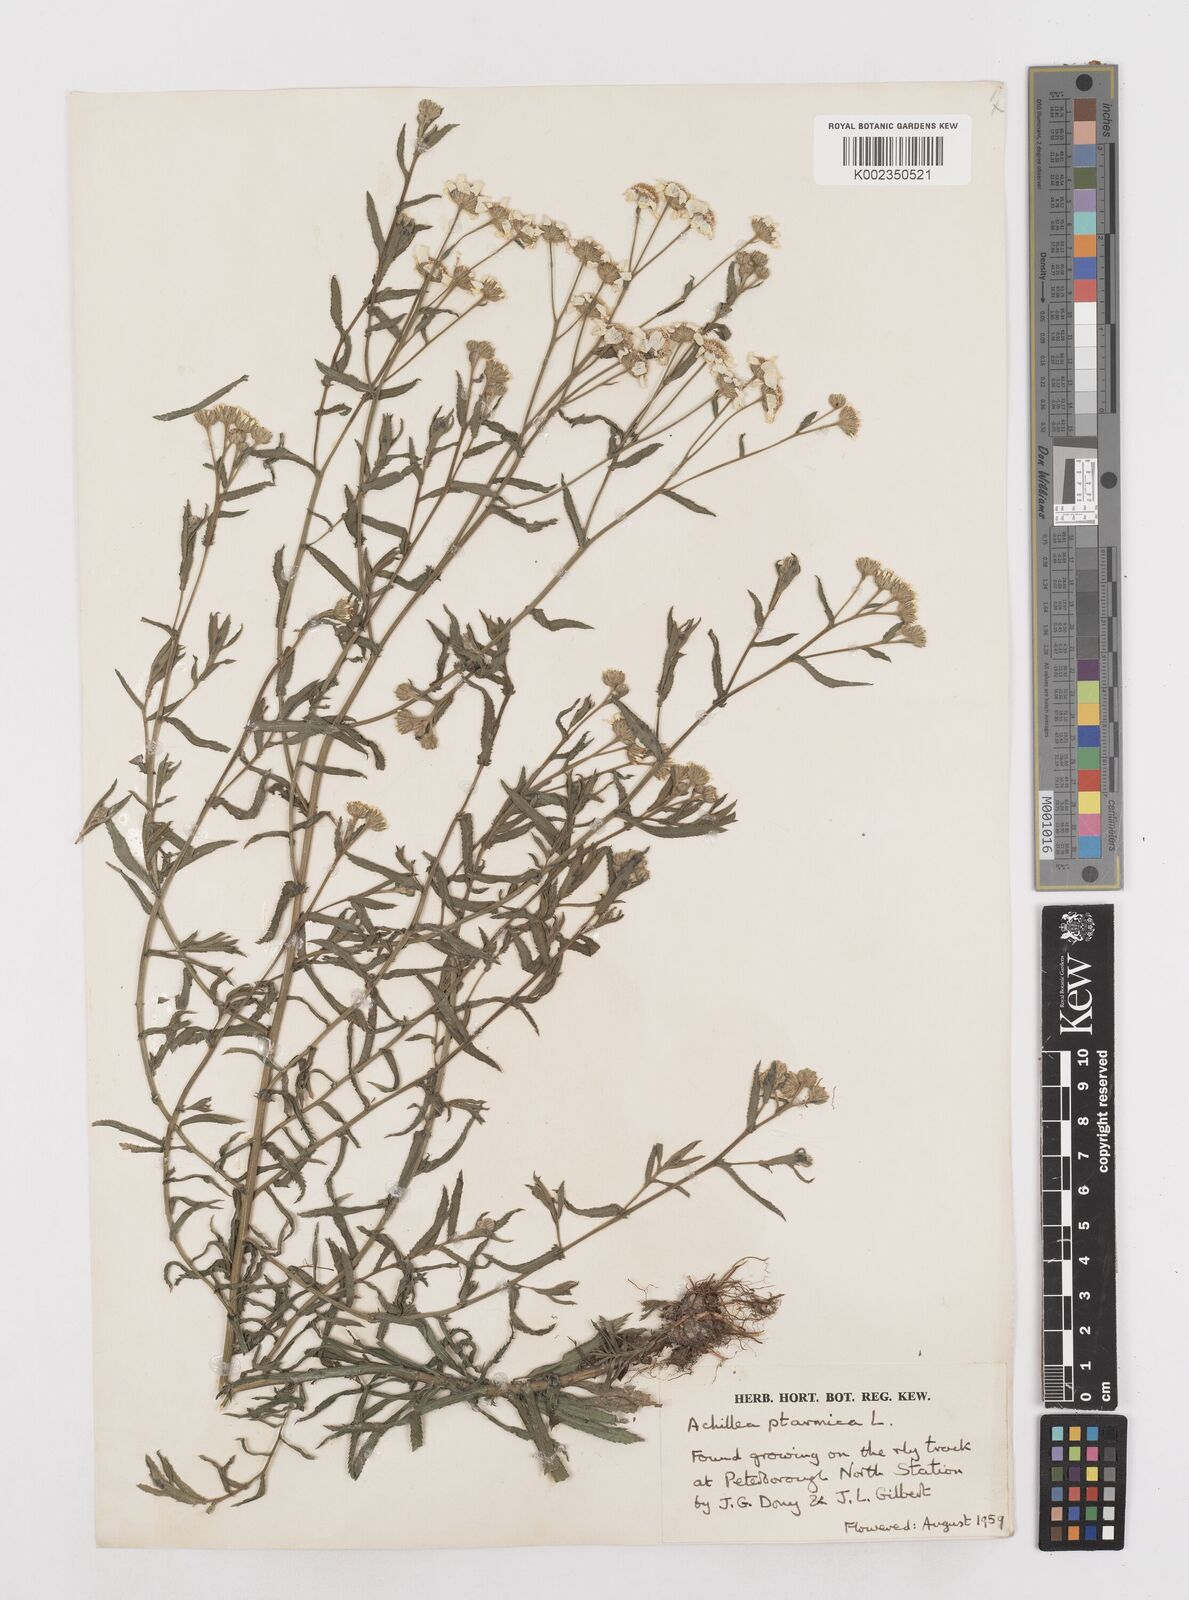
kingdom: Plantae
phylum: Tracheophyta
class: Magnoliopsida
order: Asterales
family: Asteraceae
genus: Achillea
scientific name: Achillea ptarmica
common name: Sneezeweed
